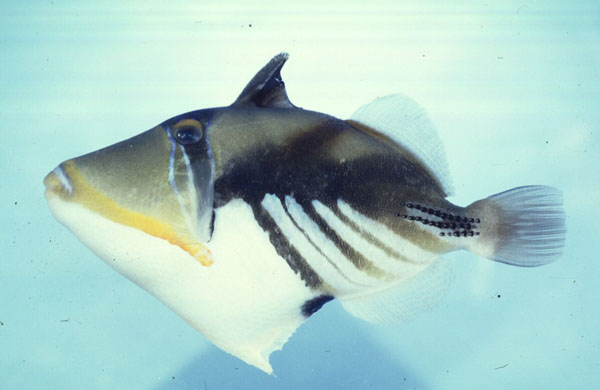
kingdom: Animalia
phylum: Chordata
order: Tetraodontiformes
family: Balistidae
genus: Rhinecanthus
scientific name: Rhinecanthus aculeatus
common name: White-banded triggerfish
